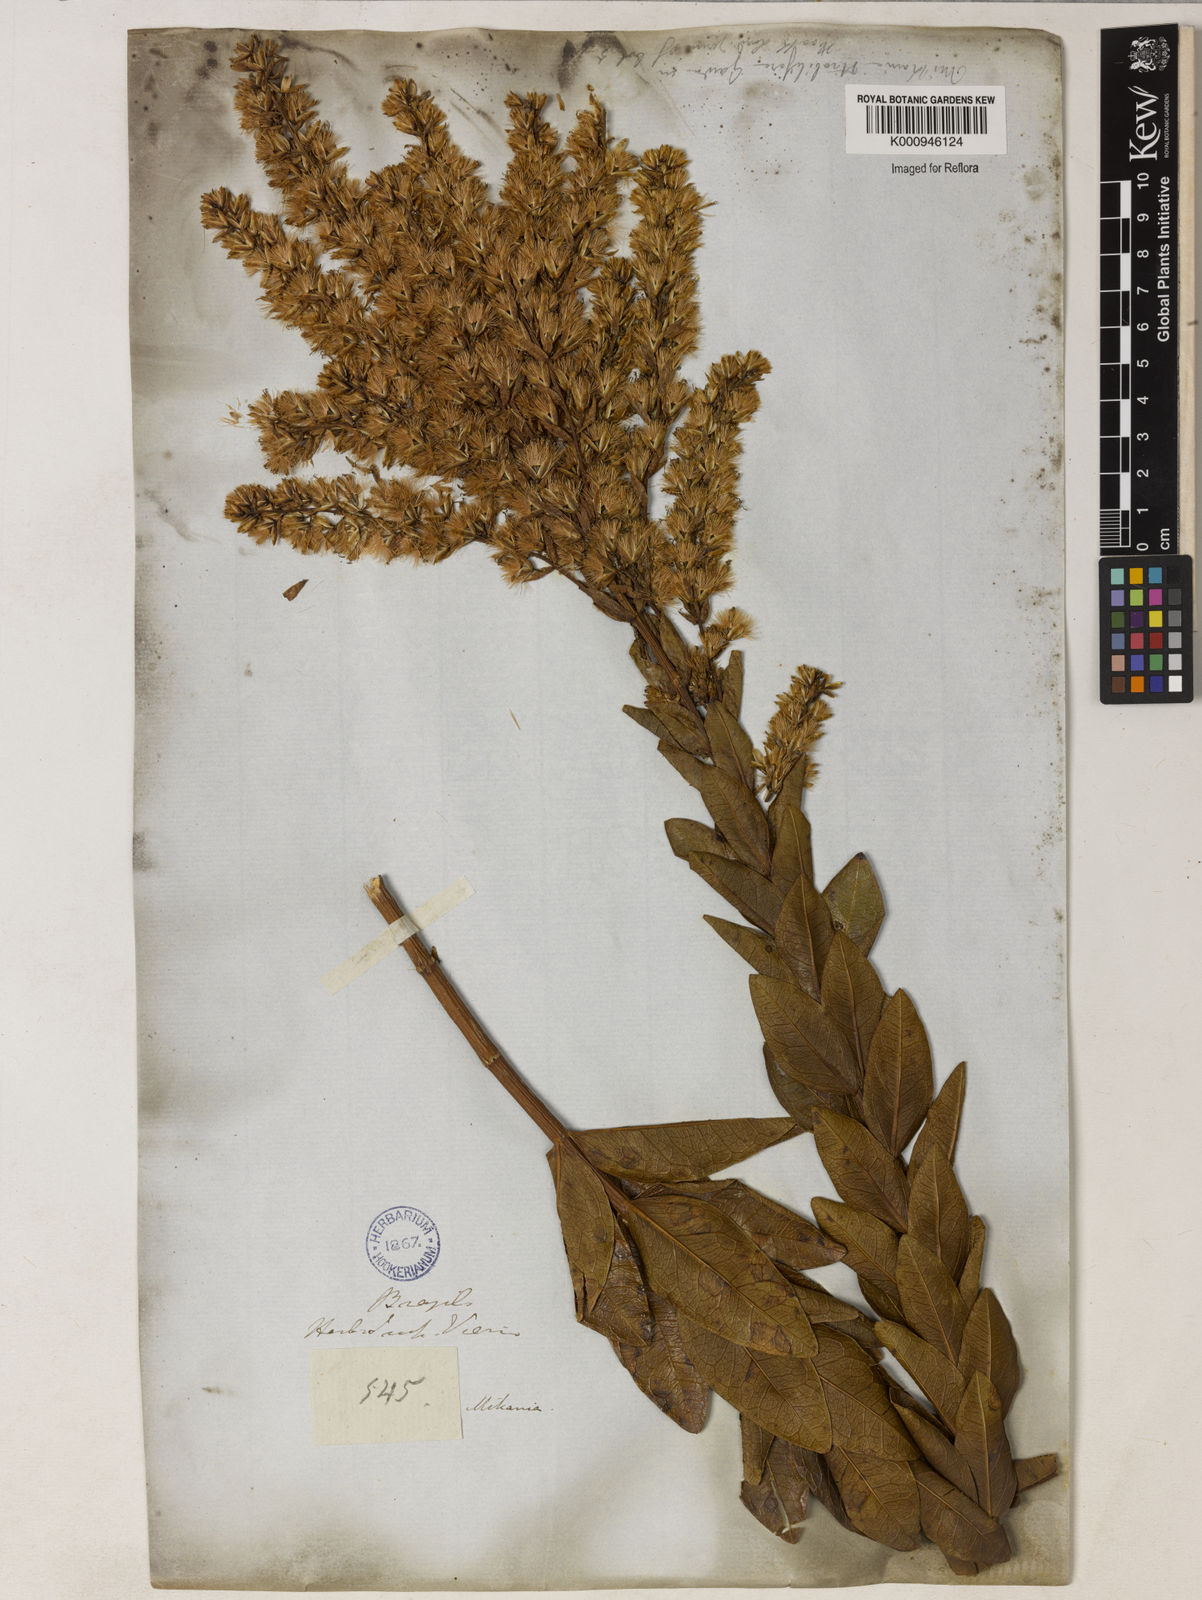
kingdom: Plantae
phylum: Tracheophyta
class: Magnoliopsida
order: Asterales
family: Asteraceae
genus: Mikania
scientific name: Mikania oblongifolia
